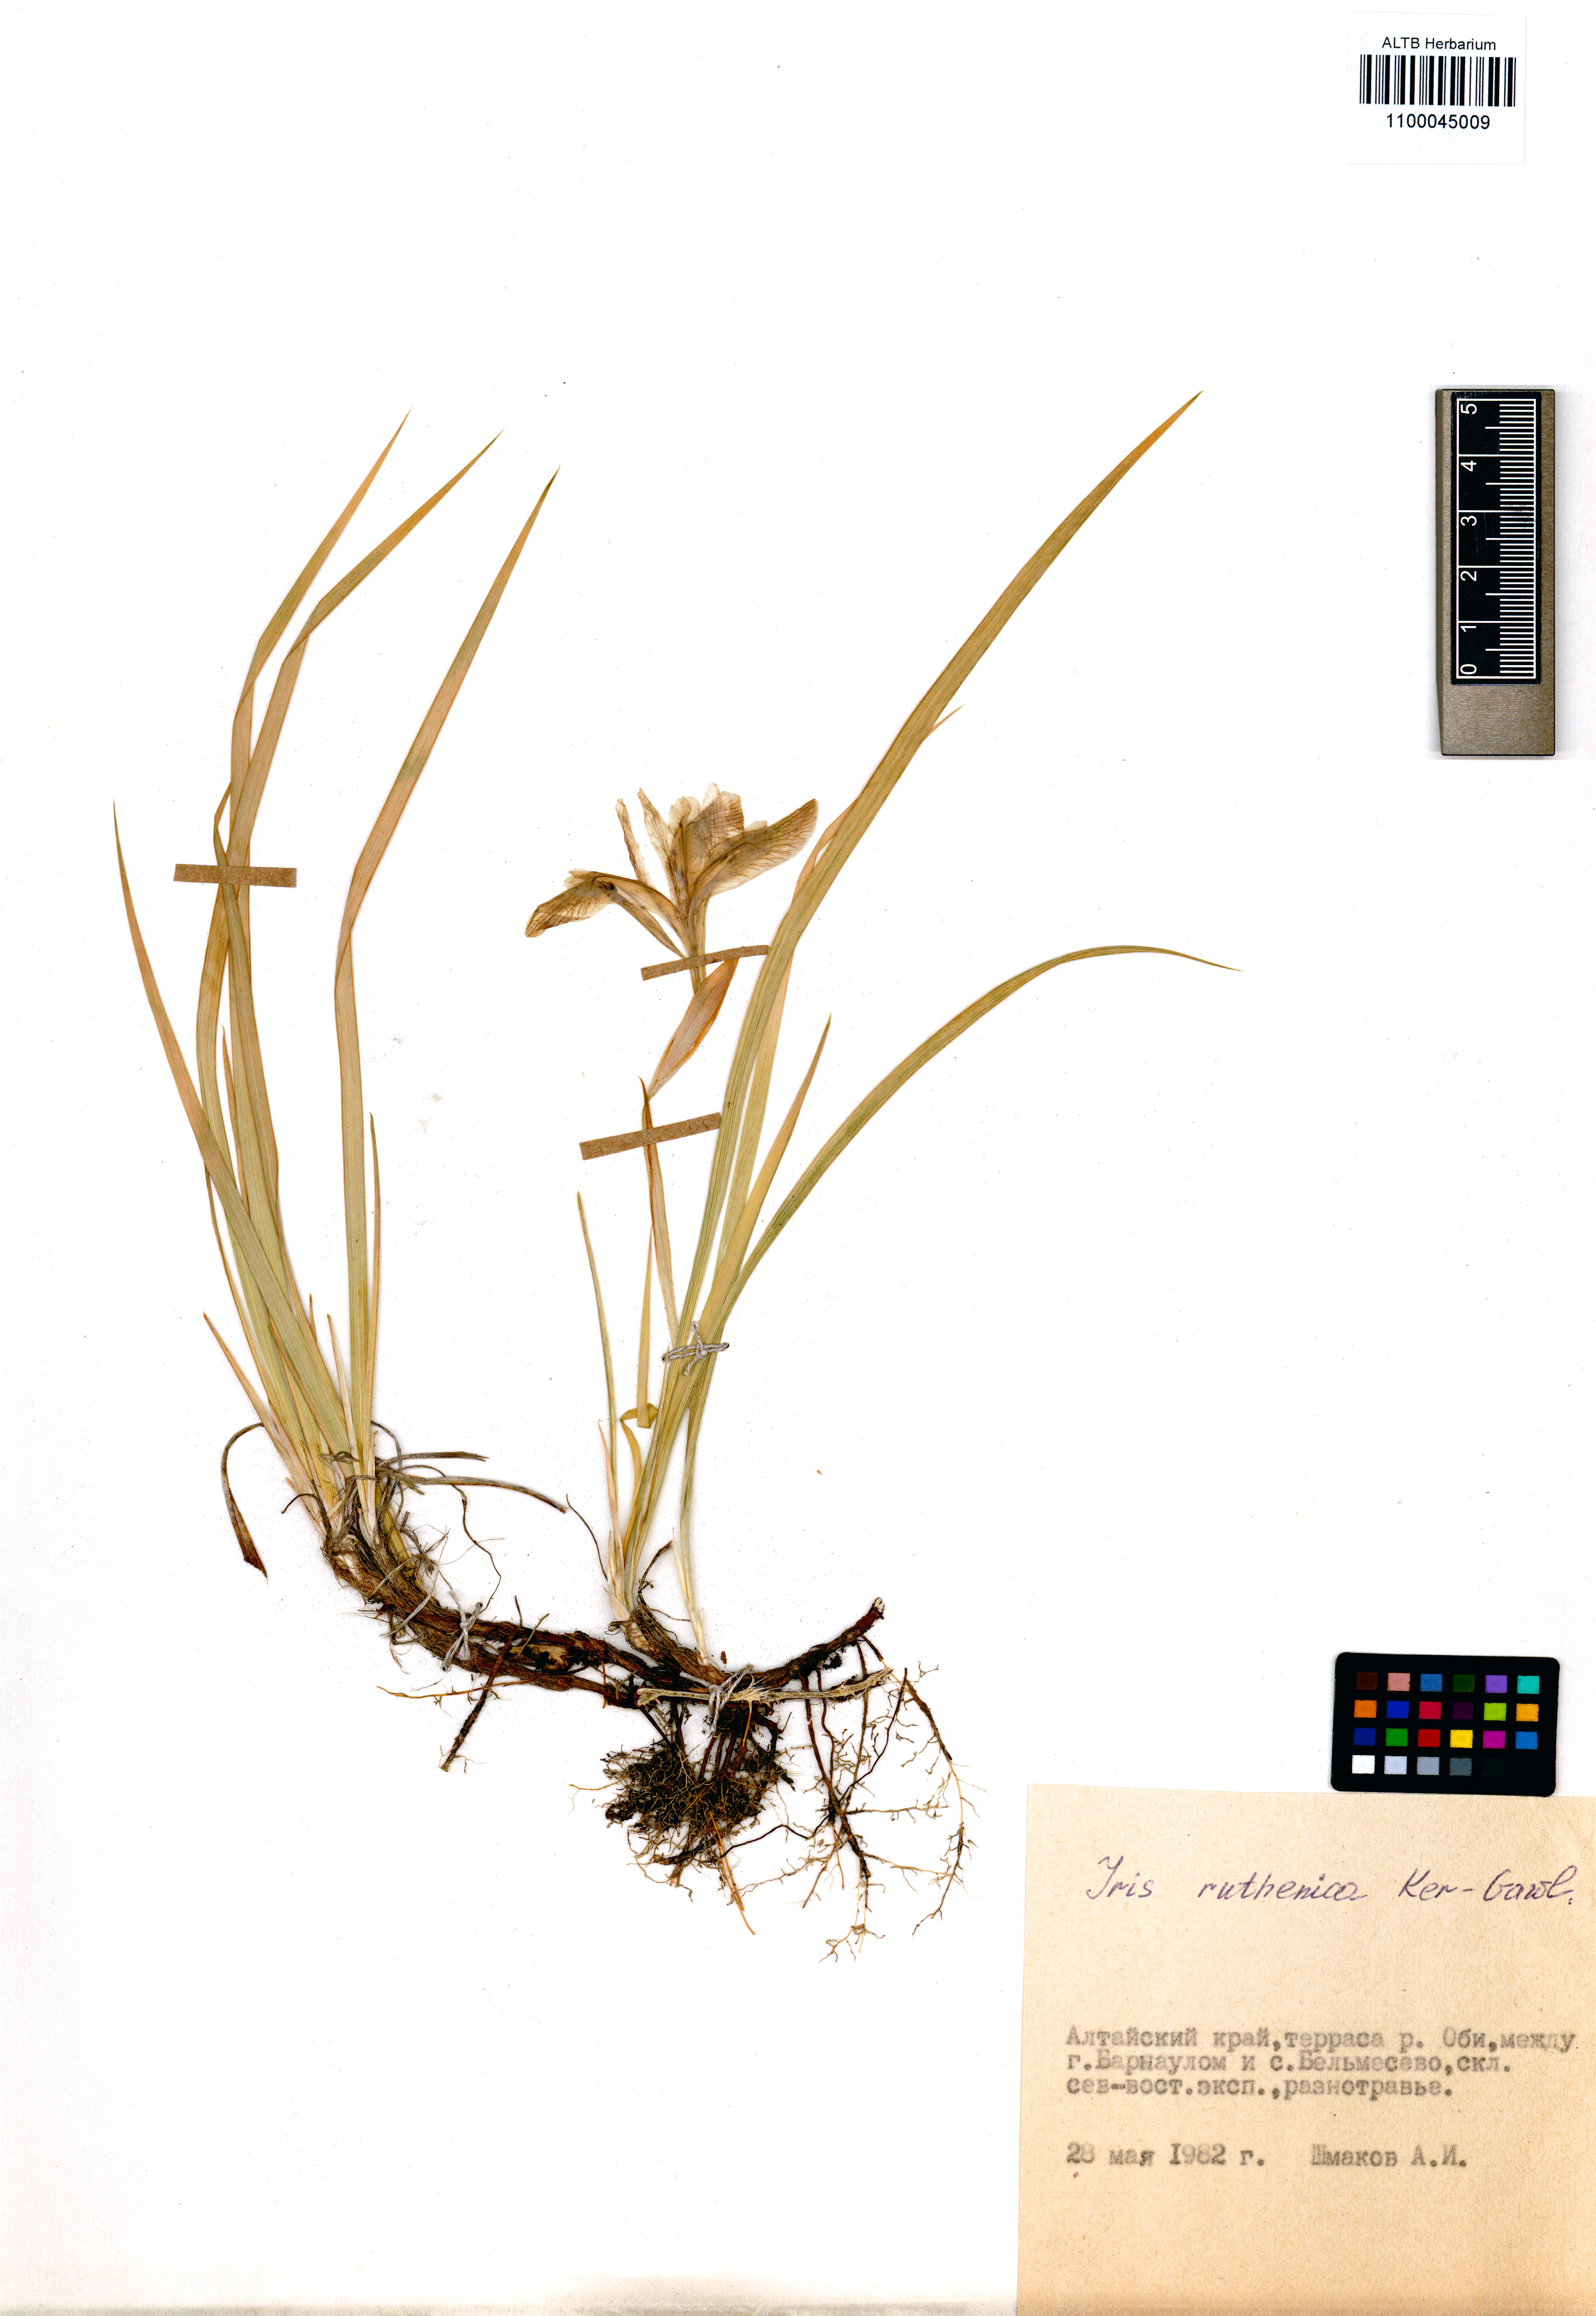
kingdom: Plantae
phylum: Tracheophyta
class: Liliopsida
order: Asparagales
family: Iridaceae
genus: Iris
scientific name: Iris ruthenica
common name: Purple-bract iris
